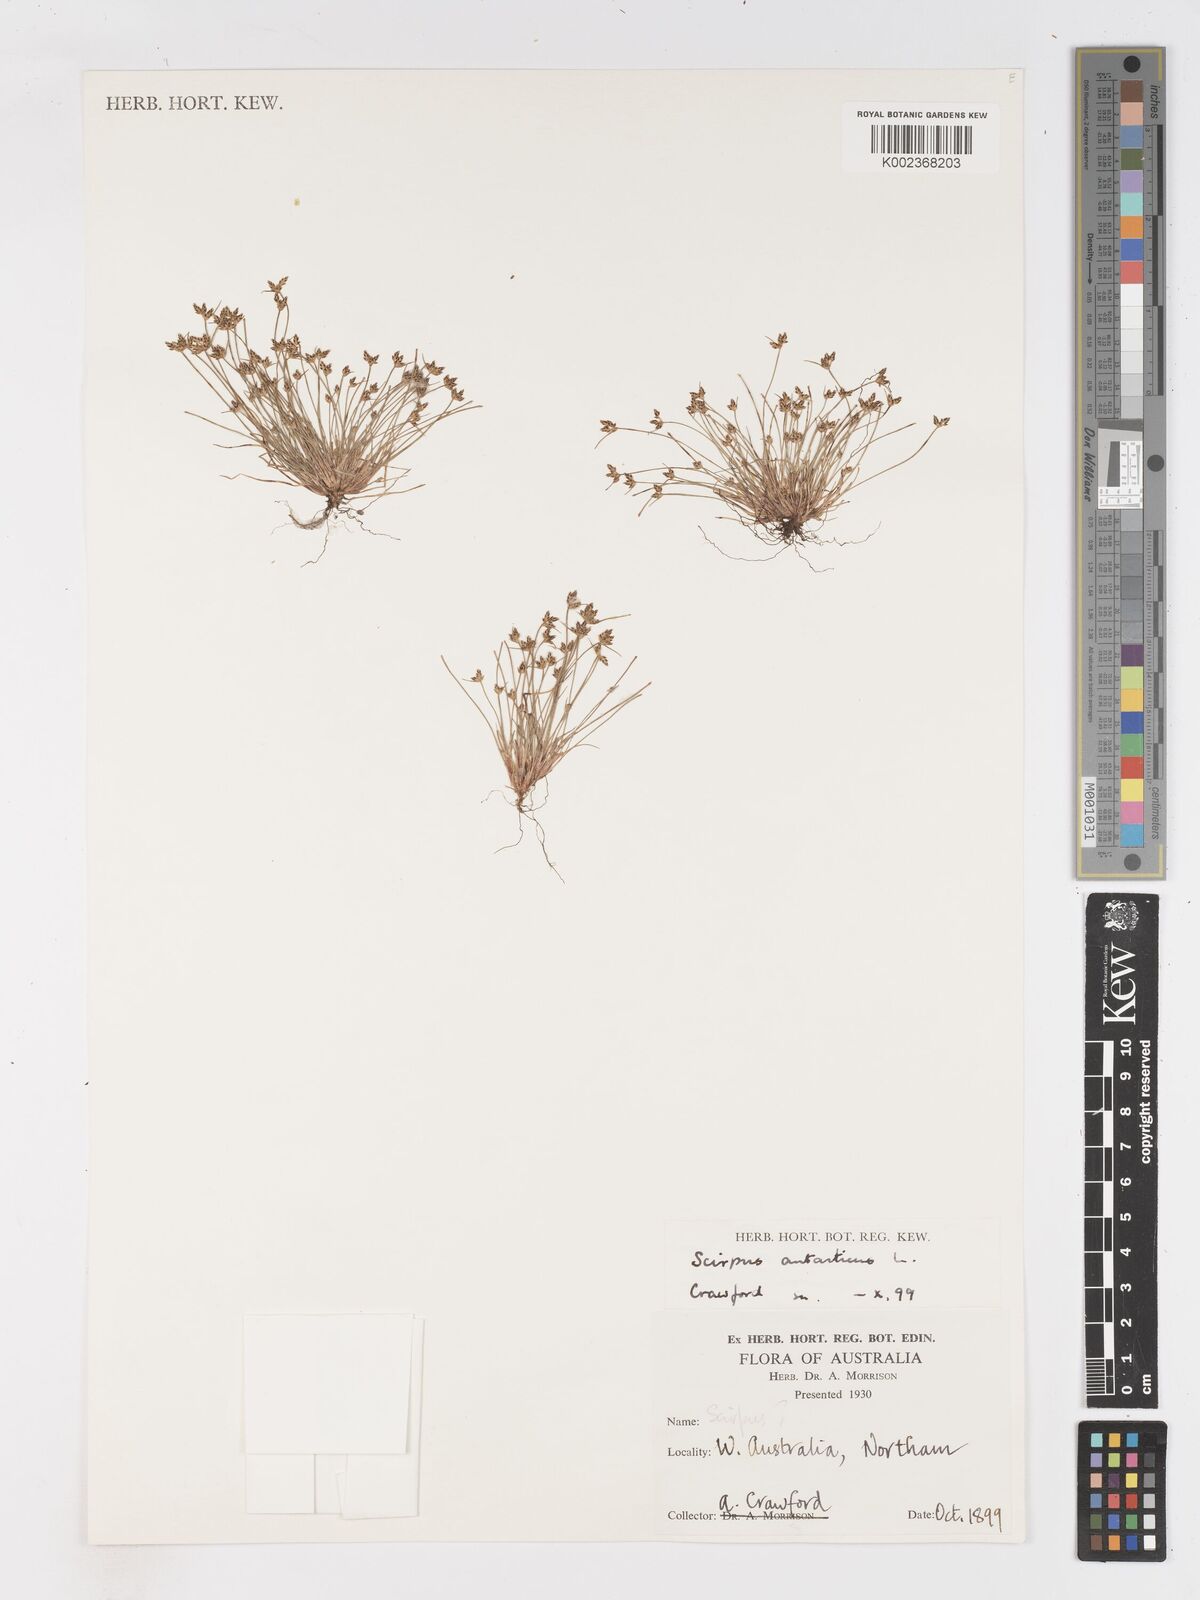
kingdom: Plantae
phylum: Tracheophyta
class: Liliopsida
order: Poales
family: Cyperaceae
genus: Isolepis
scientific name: Isolepis antarctica
